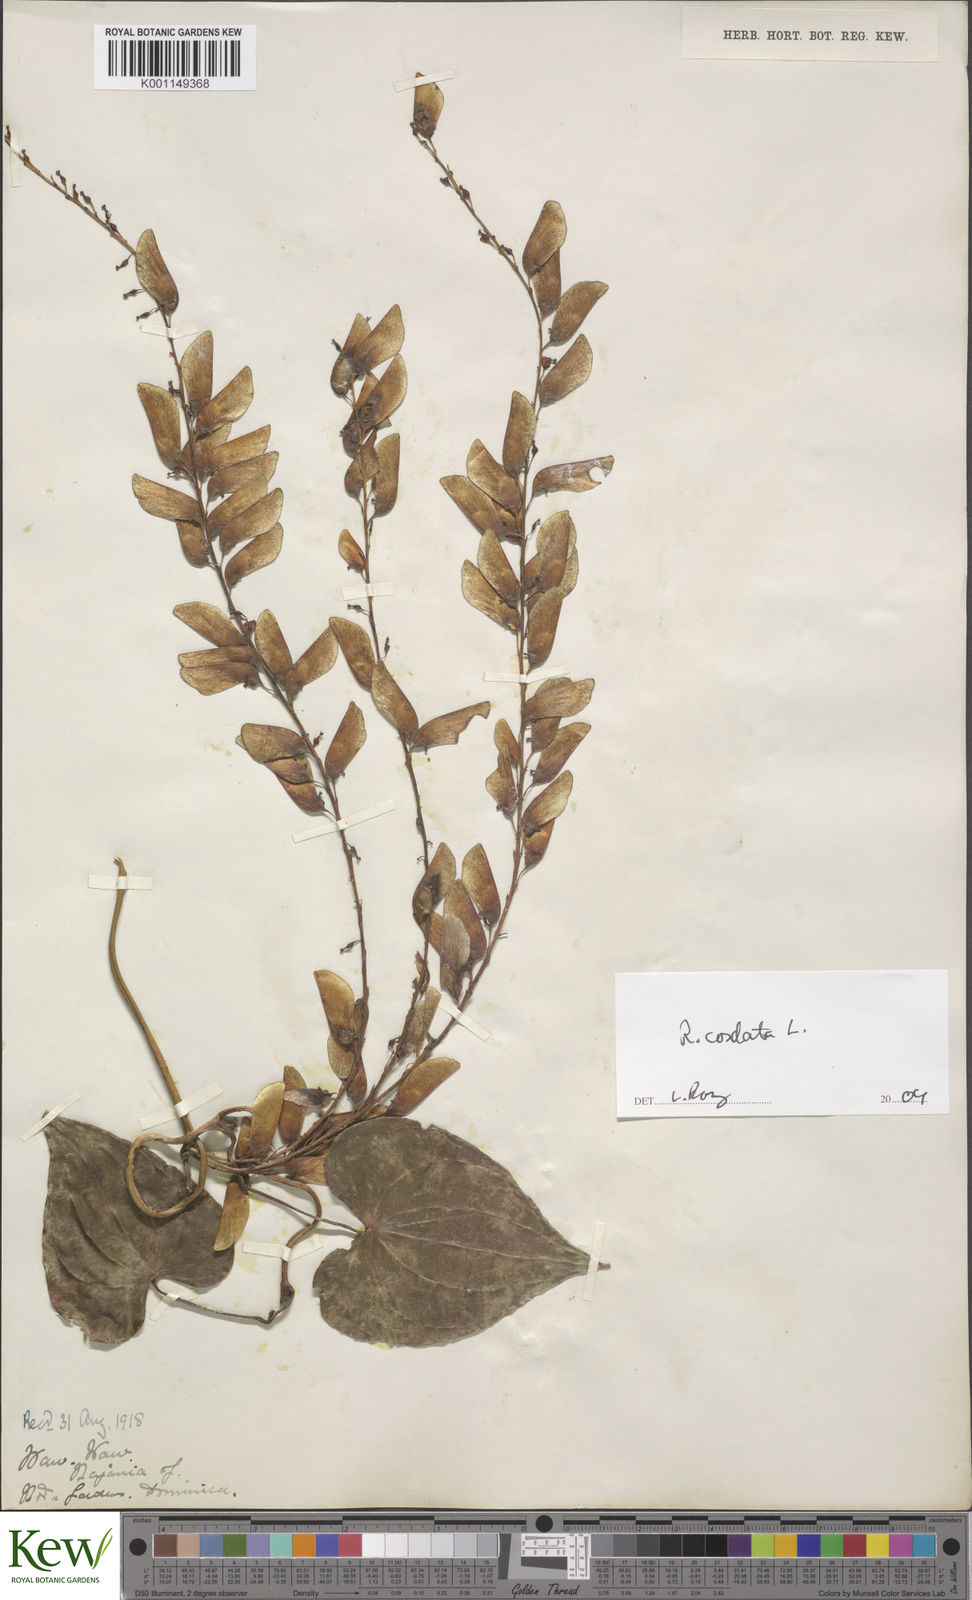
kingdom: Plantae
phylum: Tracheophyta
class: Liliopsida
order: Dioscoreales
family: Dioscoreaceae
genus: Dioscorea
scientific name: Dioscorea
